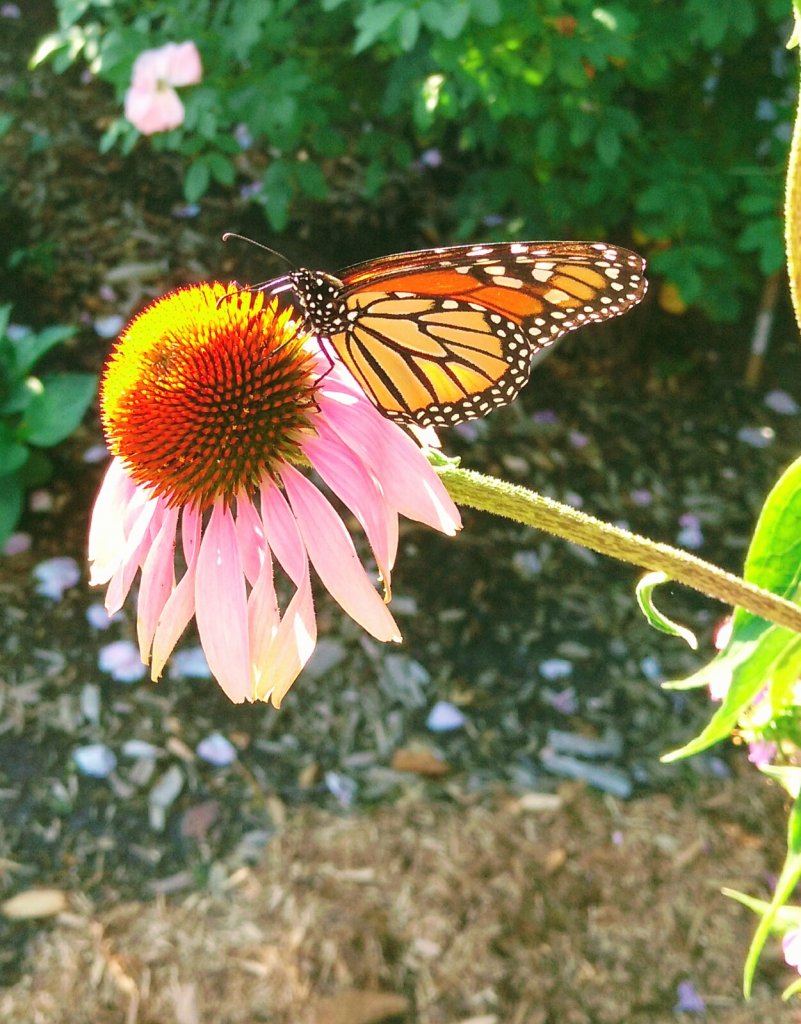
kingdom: Animalia
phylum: Arthropoda
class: Insecta
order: Lepidoptera
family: Nymphalidae
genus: Danaus
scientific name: Danaus plexippus
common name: Monarch
